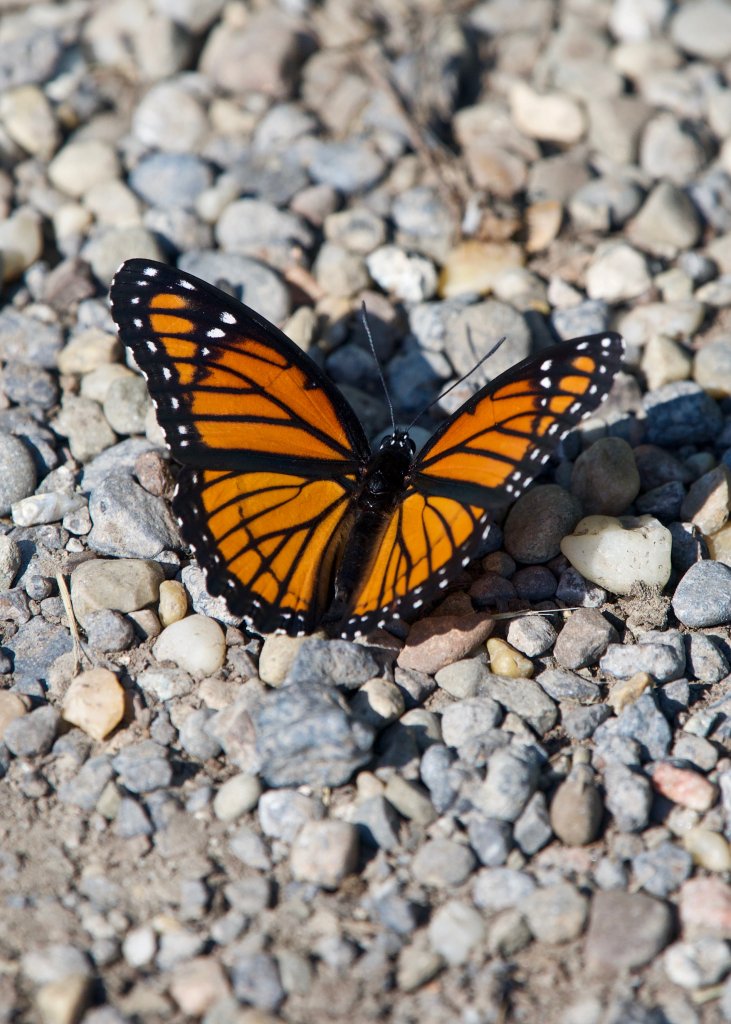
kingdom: Animalia
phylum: Arthropoda
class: Insecta
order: Lepidoptera
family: Nymphalidae
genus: Limenitis
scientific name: Limenitis archippus
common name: Viceroy
